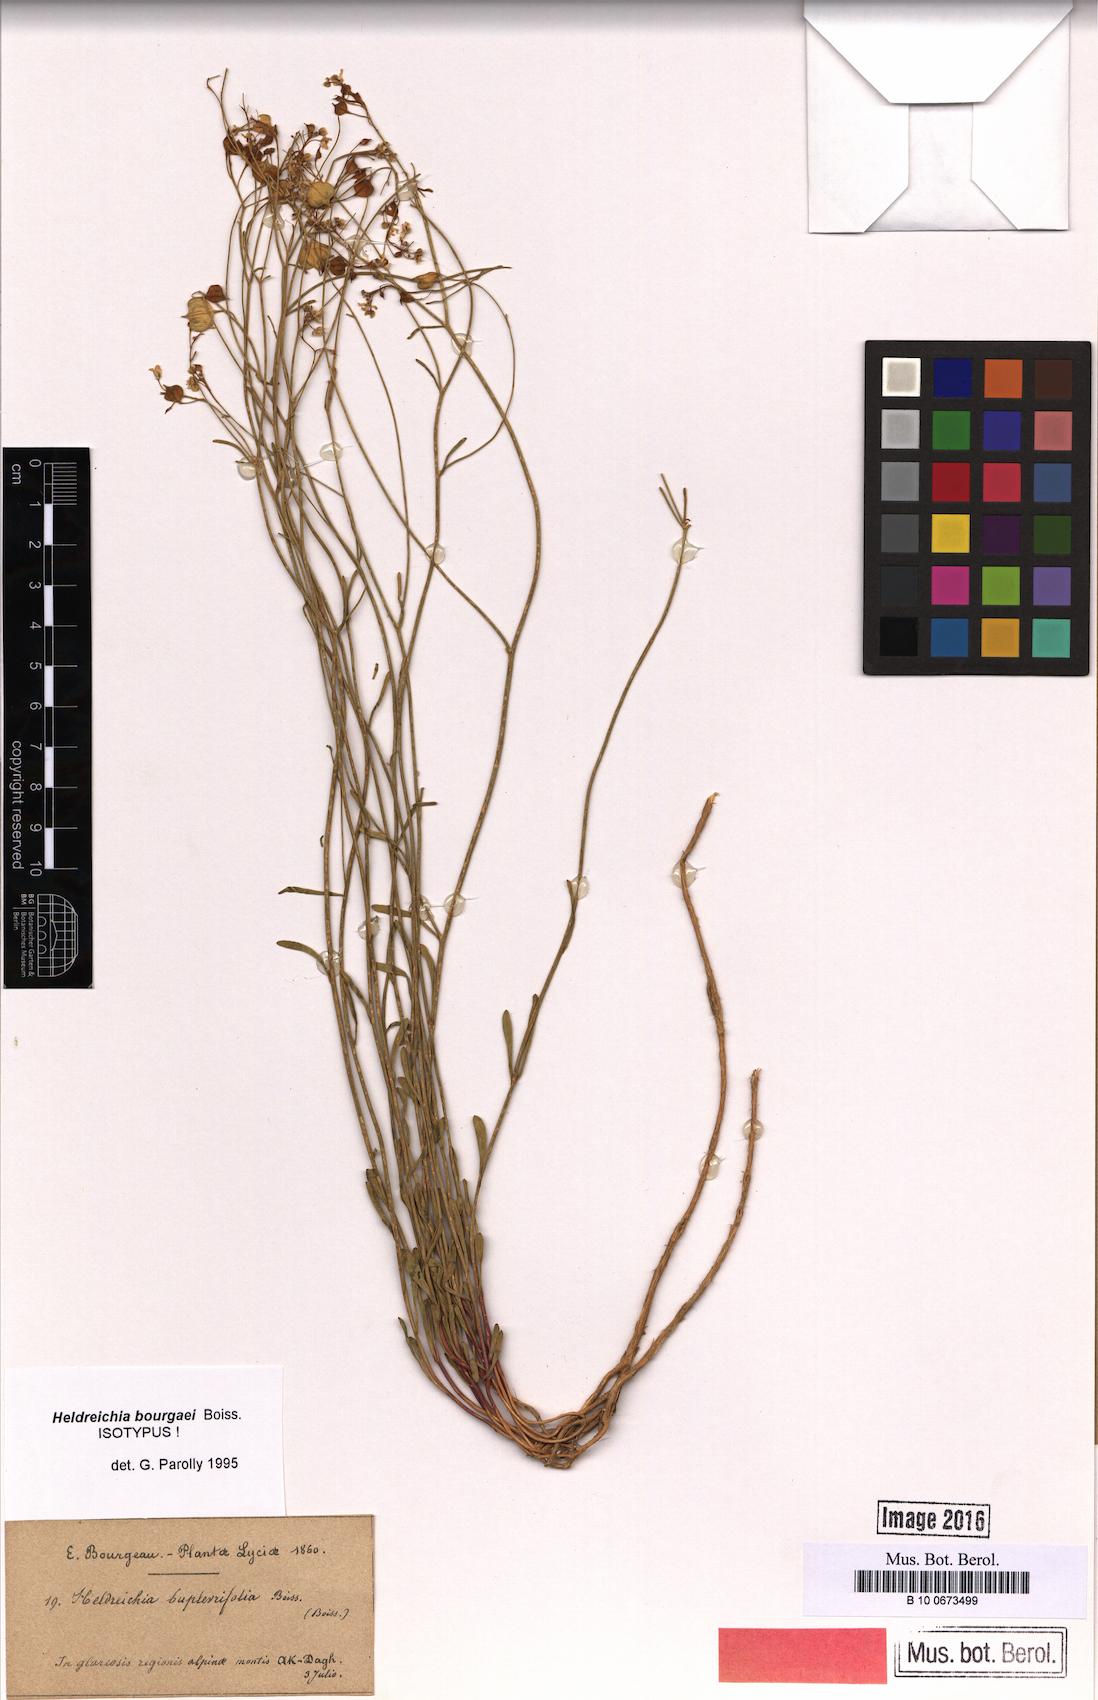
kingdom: Plantae
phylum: Tracheophyta
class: Magnoliopsida
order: Brassicales
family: Brassicaceae
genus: Heldreichia
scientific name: Heldreichia bupleurifolia
